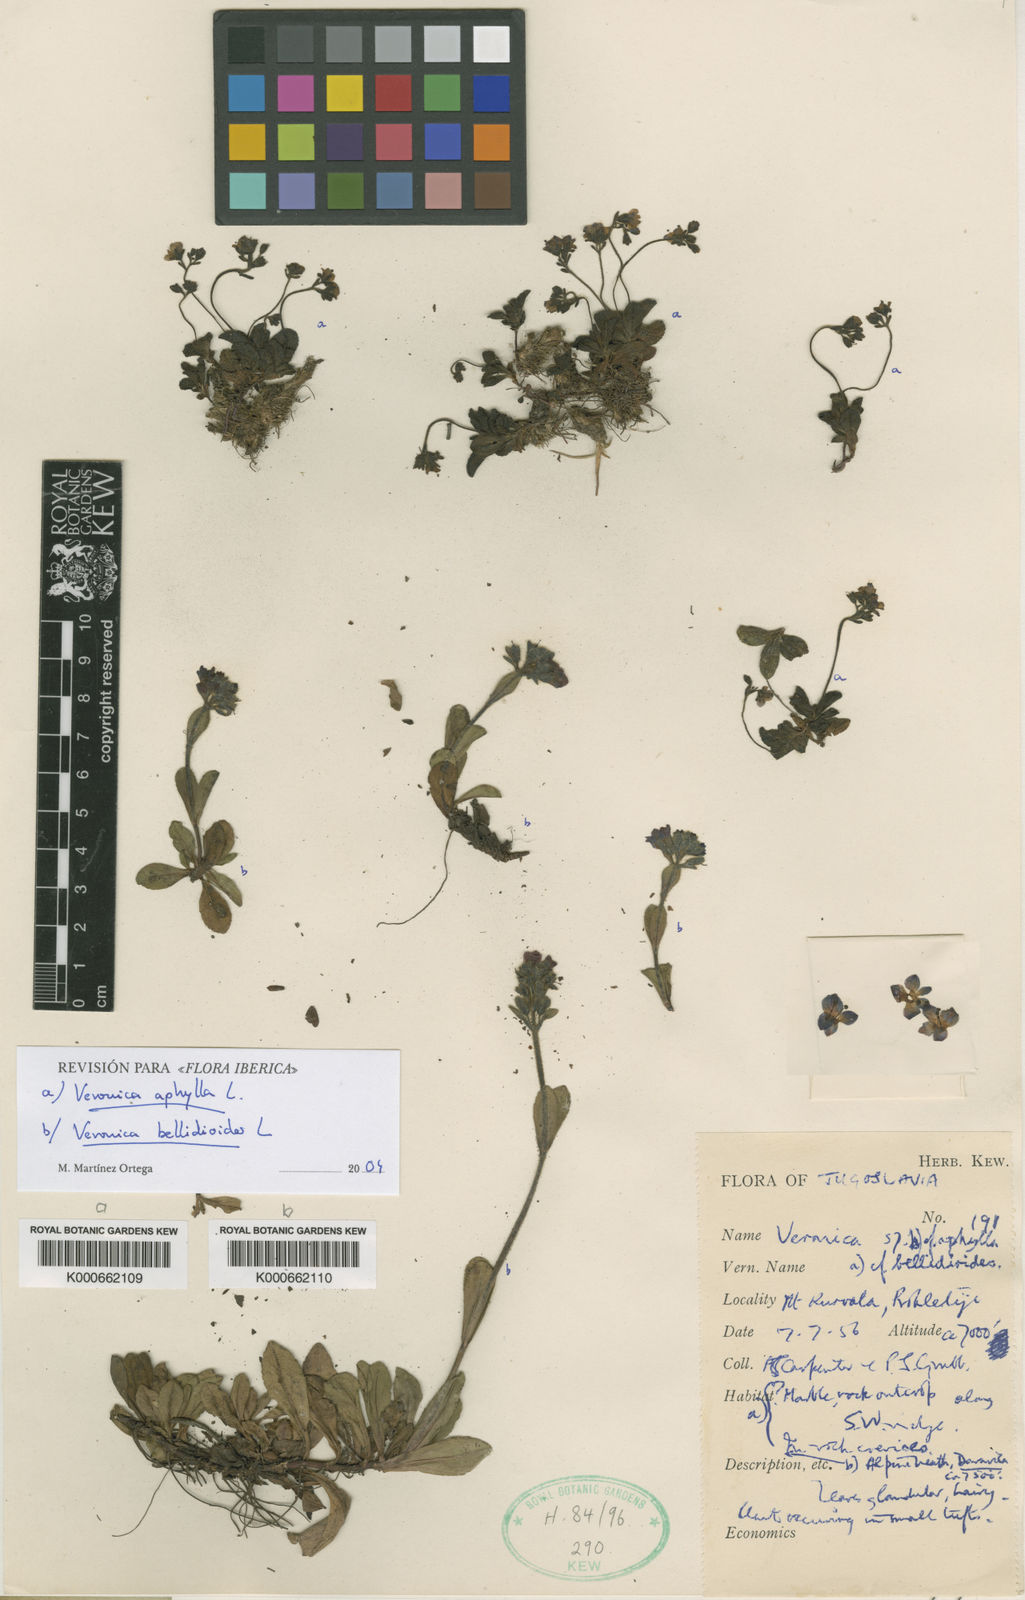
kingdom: Plantae
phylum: Tracheophyta
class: Magnoliopsida
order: Lamiales
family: Plantaginaceae
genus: Veronica
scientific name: Veronica aphylla
